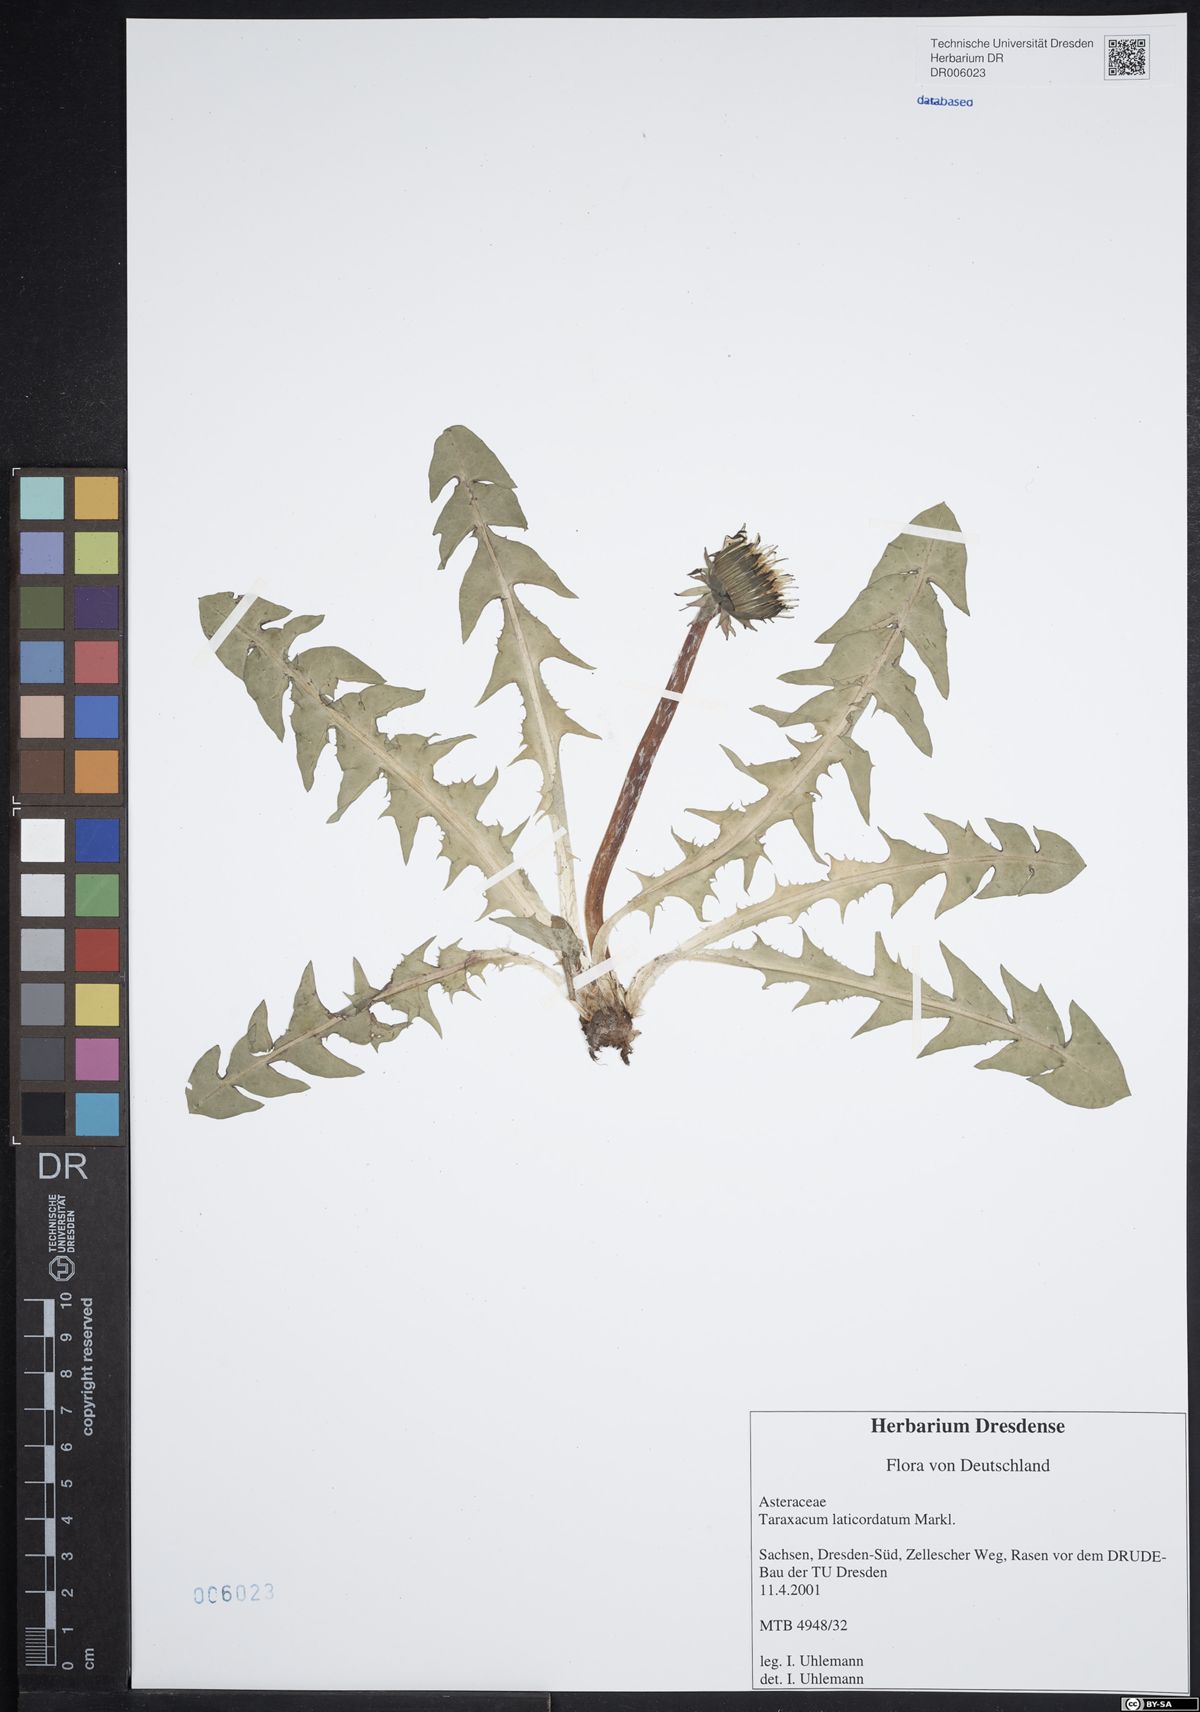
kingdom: Plantae
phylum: Tracheophyta
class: Magnoliopsida
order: Asterales
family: Asteraceae
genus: Taraxacum
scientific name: Taraxacum laticordatum
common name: Decumbent dandelion
